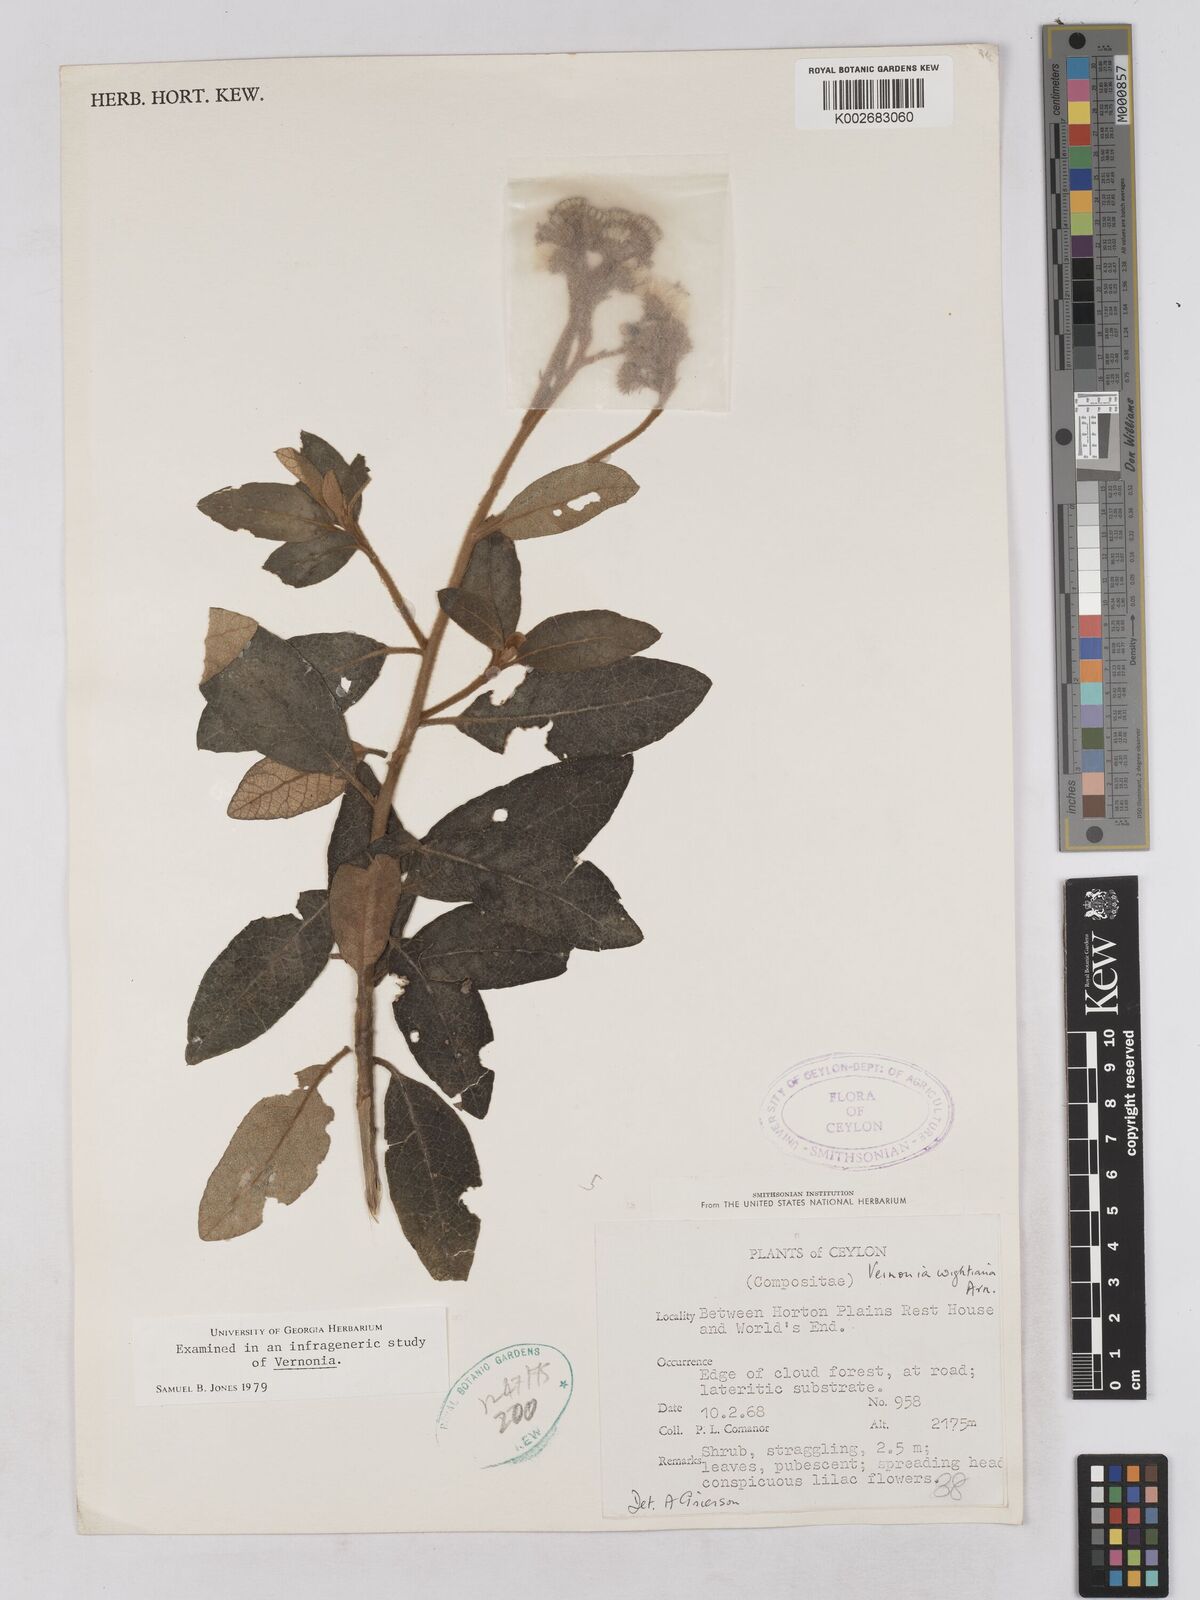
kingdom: Plantae
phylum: Tracheophyta
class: Magnoliopsida
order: Asterales
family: Asteraceae
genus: Uniyala
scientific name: Uniyala wightiana
